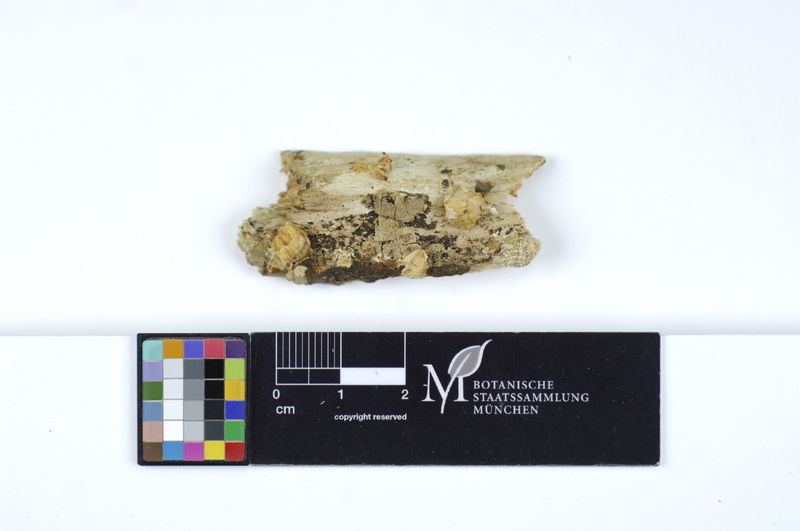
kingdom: Fungi
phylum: Basidiomycota
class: Agaricomycetes
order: Polyporales
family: Steccherinaceae
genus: Antrodiella
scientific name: Antrodiella semisupina
